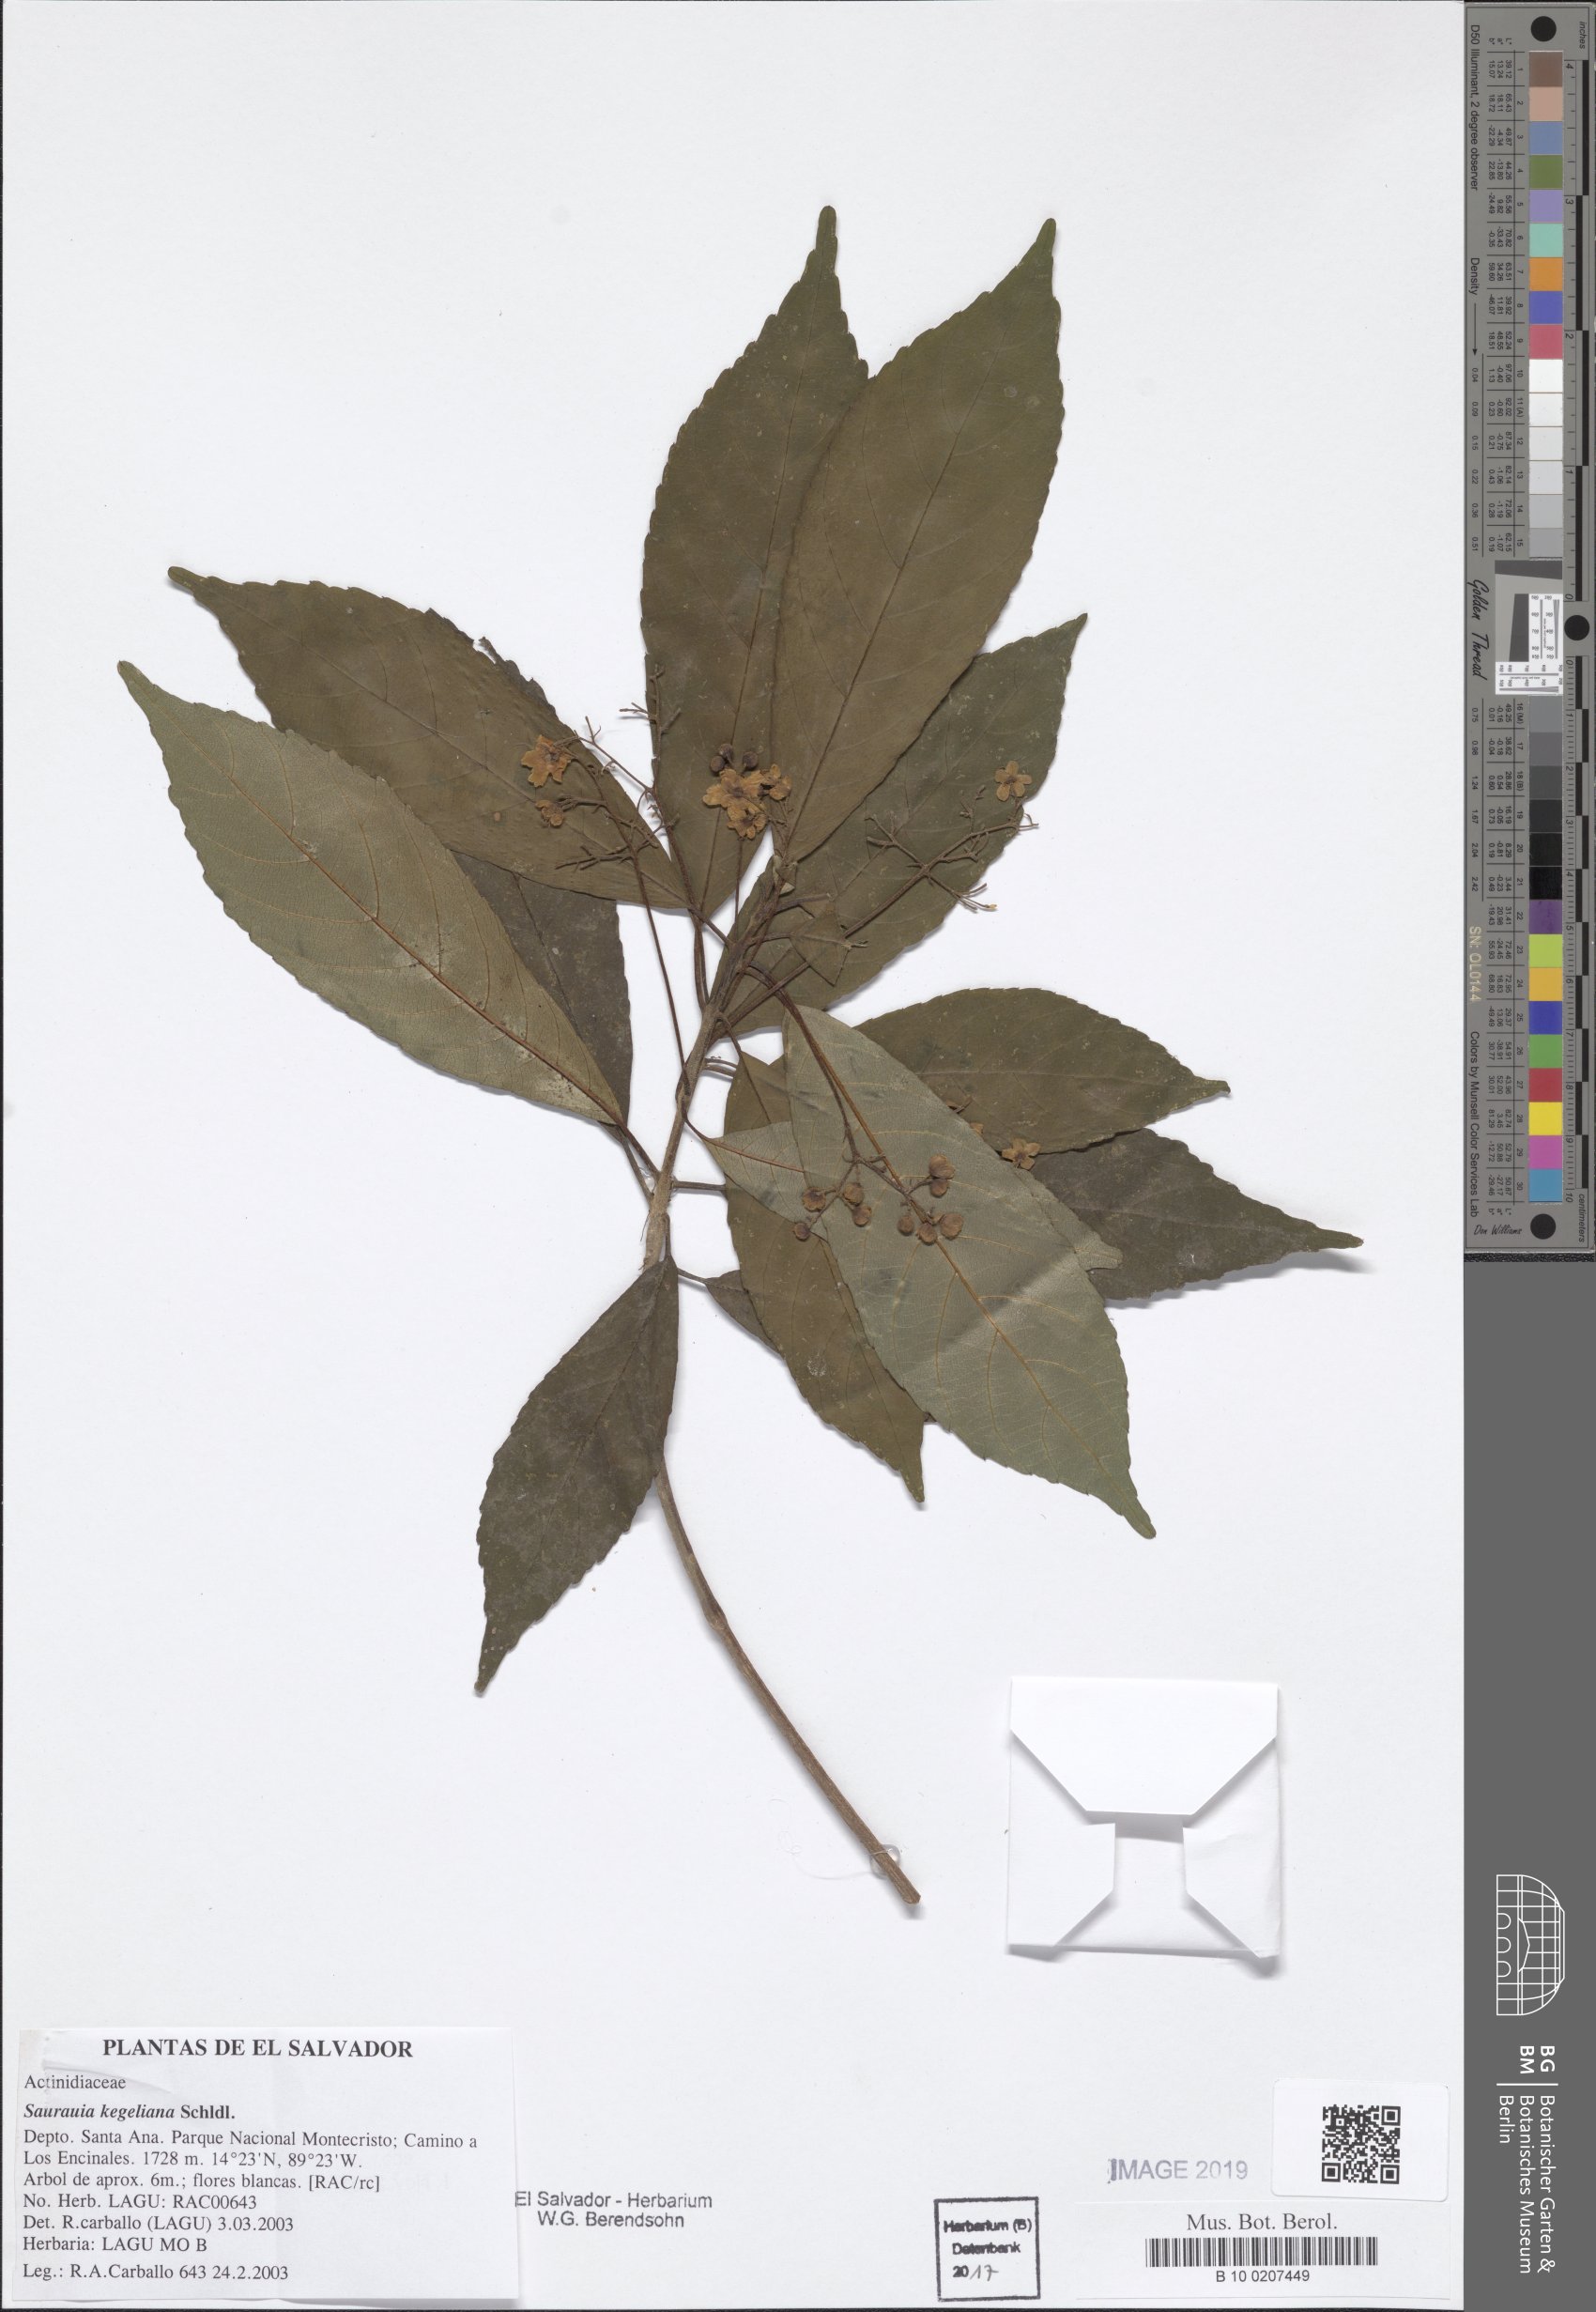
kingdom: Plantae
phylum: Tracheophyta
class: Magnoliopsida
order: Ericales
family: Actinidiaceae
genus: Saurauia
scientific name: Saurauia kegeliana
